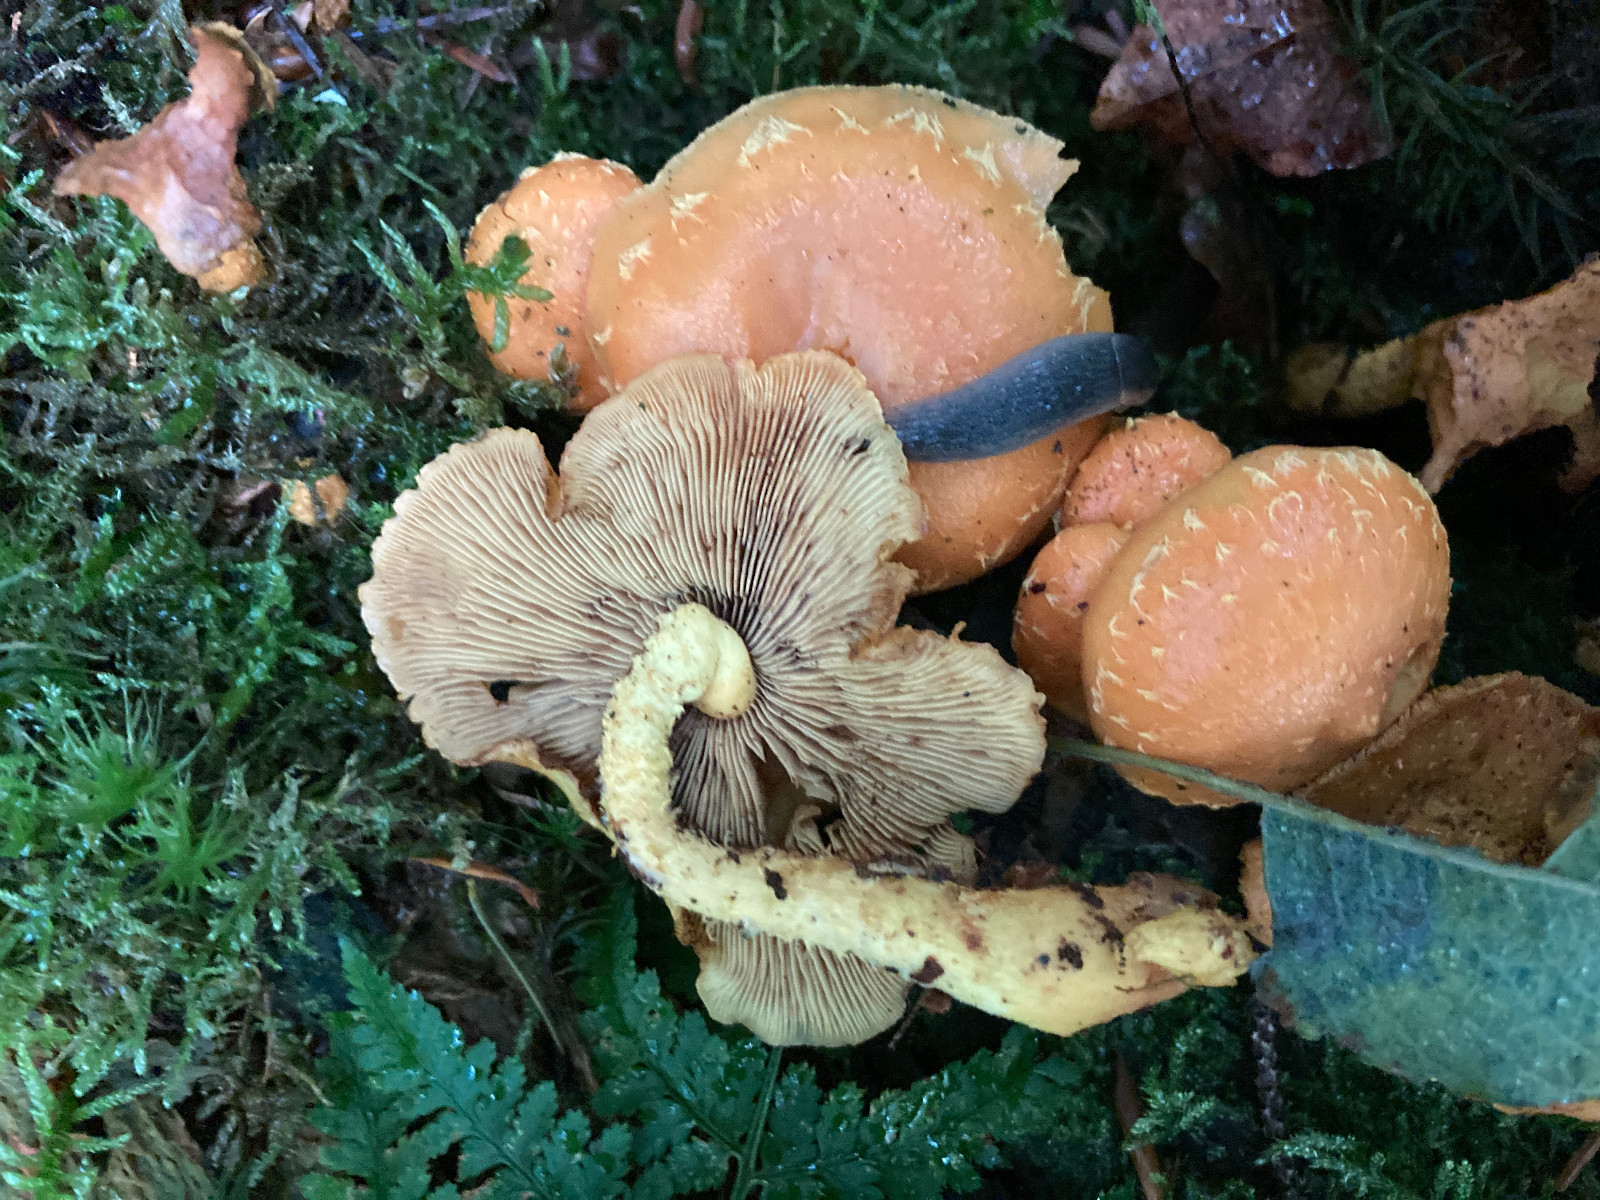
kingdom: Fungi
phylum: Basidiomycota
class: Agaricomycetes
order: Agaricales
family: Strophariaceae
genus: Pholiota
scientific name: Pholiota flammans
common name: flamme-skælhat
